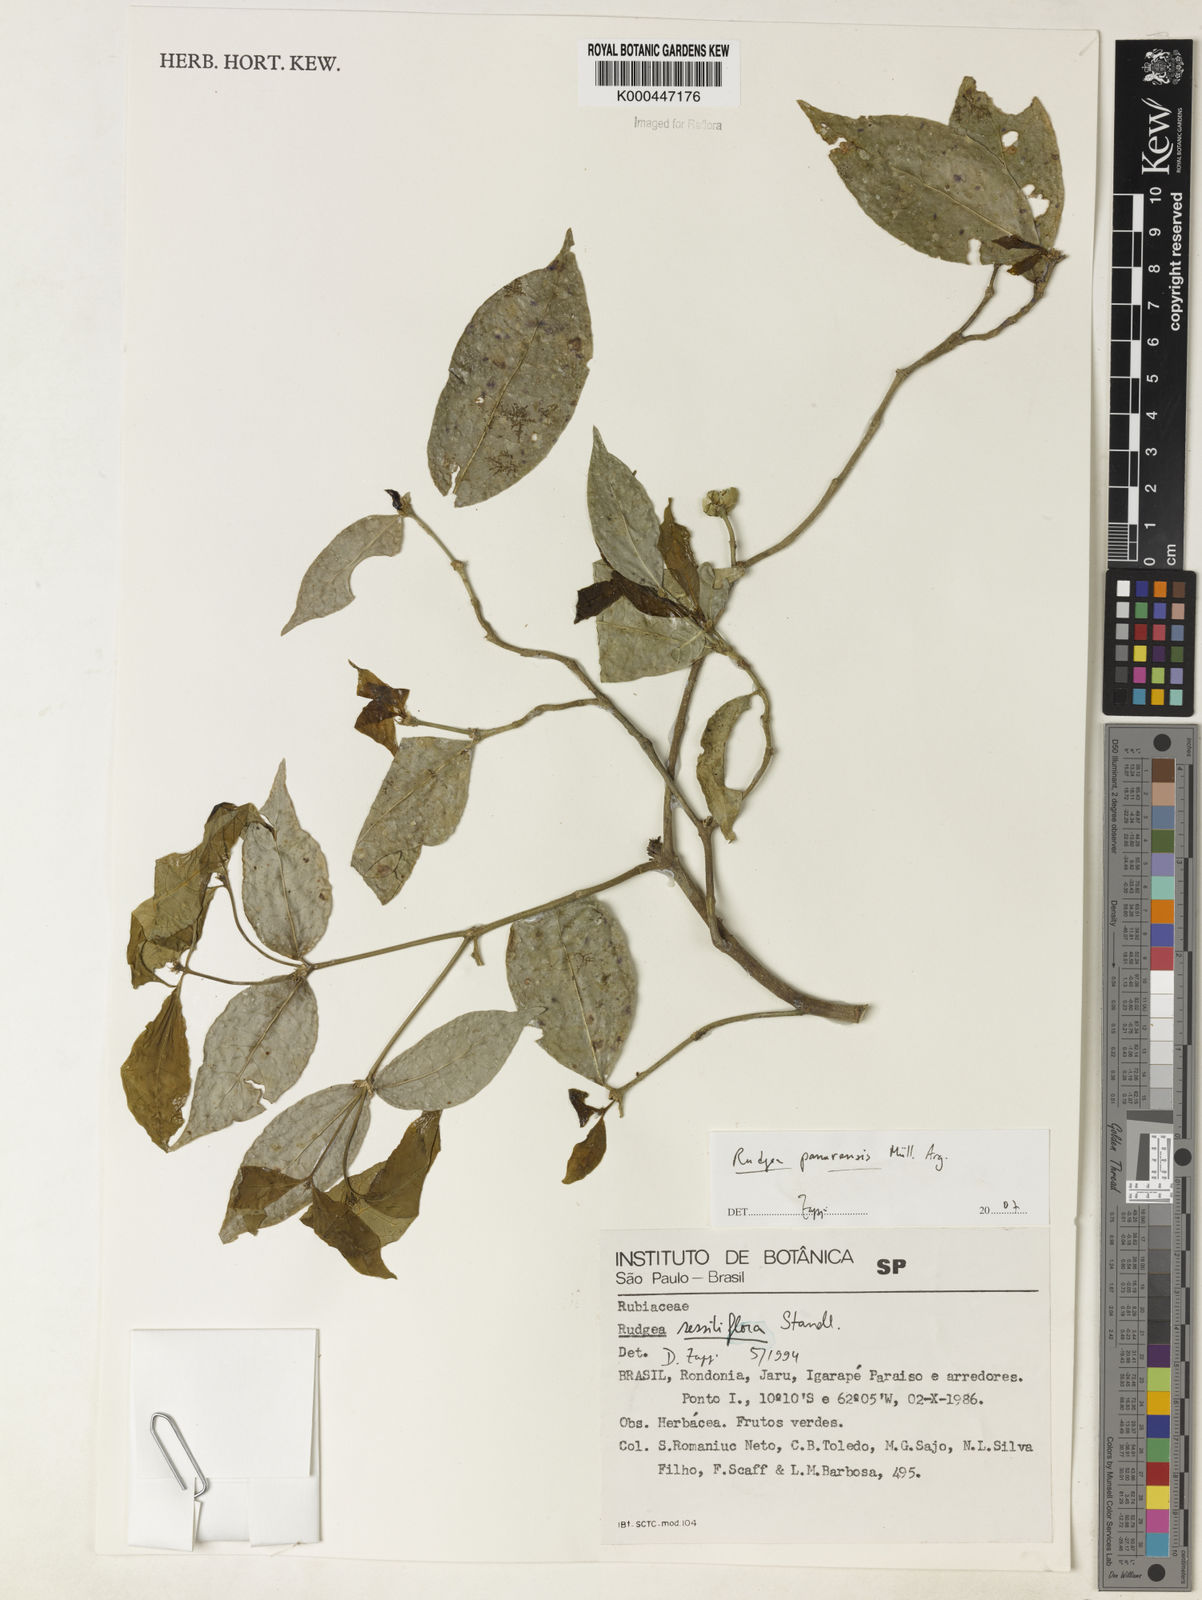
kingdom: Plantae
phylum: Tracheophyta
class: Magnoliopsida
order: Gentianales
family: Rubiaceae
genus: Rudgea
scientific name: Rudgea panurensis
